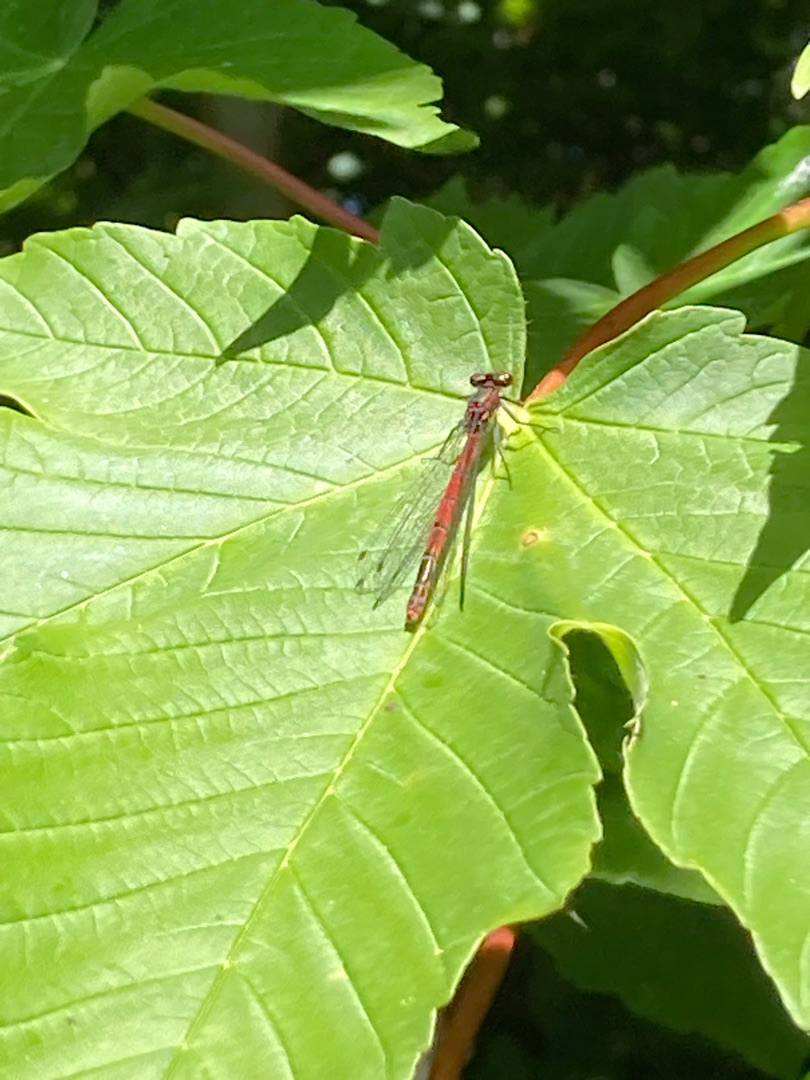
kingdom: Animalia
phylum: Arthropoda
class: Insecta
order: Odonata
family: Coenagrionidae
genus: Pyrrhosoma
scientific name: Pyrrhosoma nymphula
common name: Rød vandnymfe
